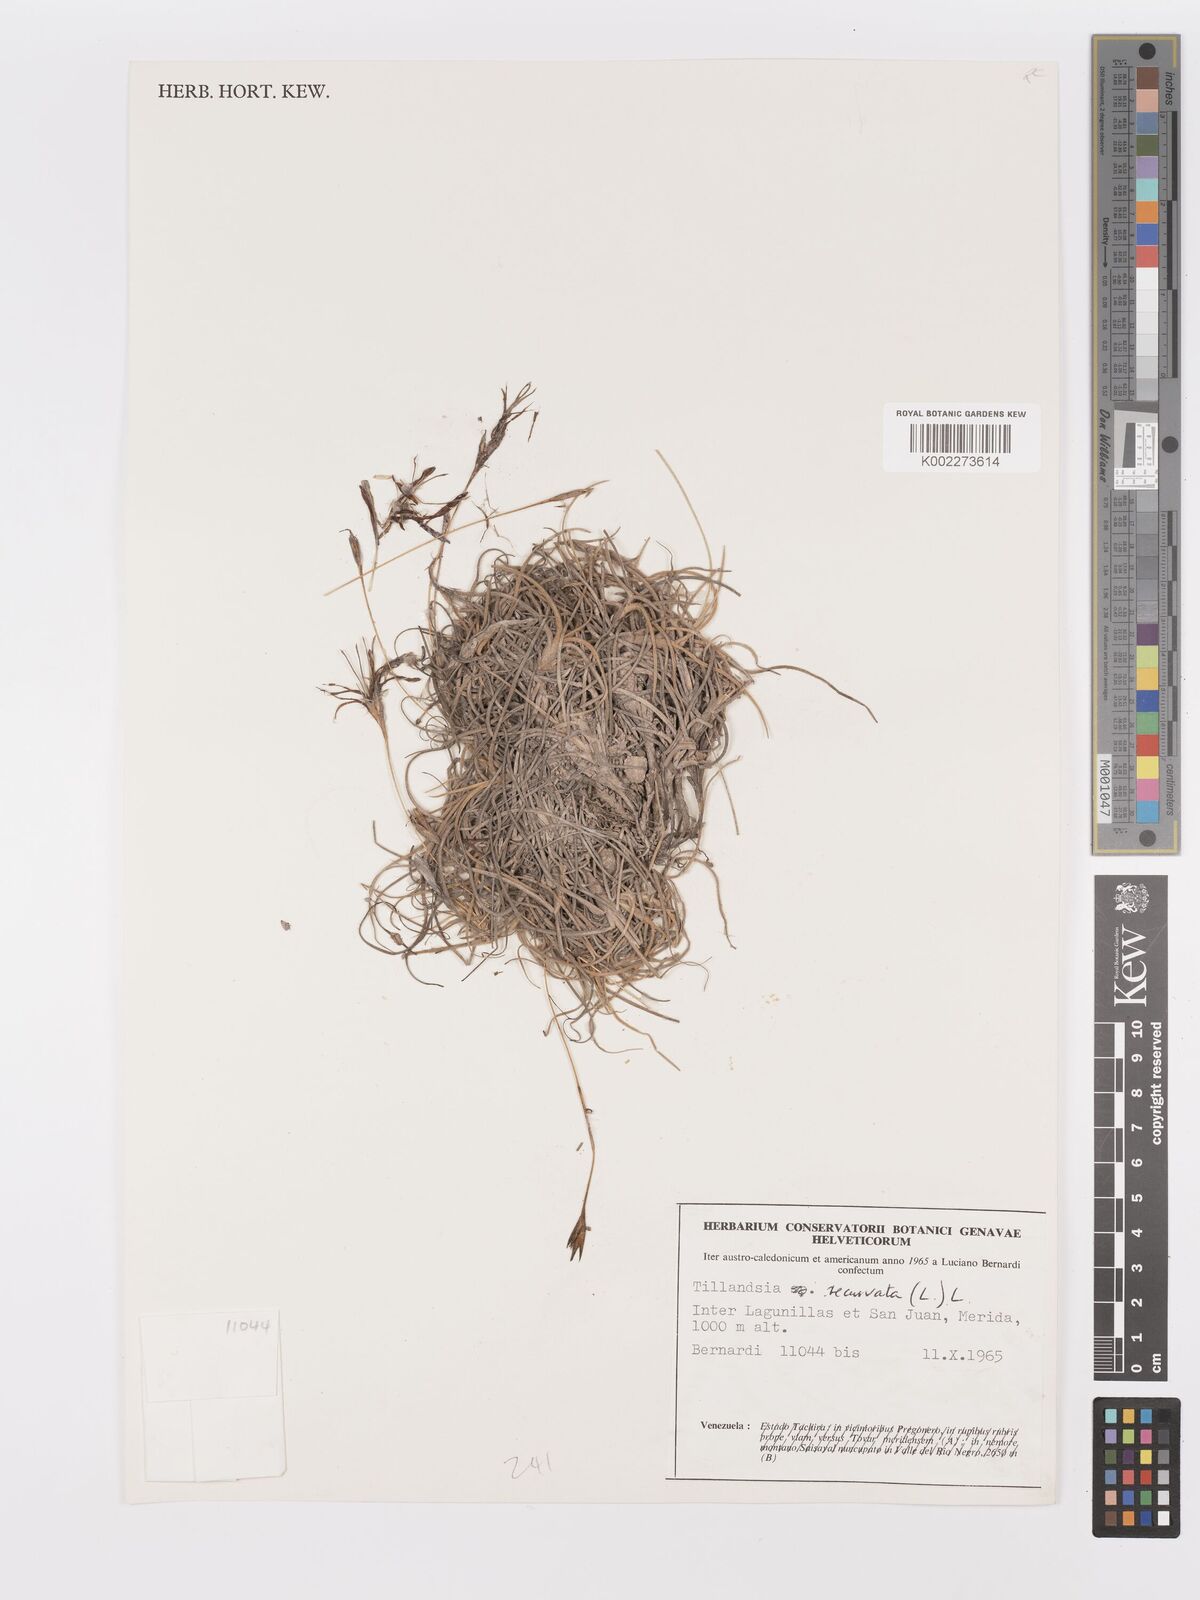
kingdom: Plantae
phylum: Tracheophyta
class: Liliopsida
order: Poales
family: Bromeliaceae
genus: Tillandsia
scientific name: Tillandsia recurvata
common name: Small ballmoss
